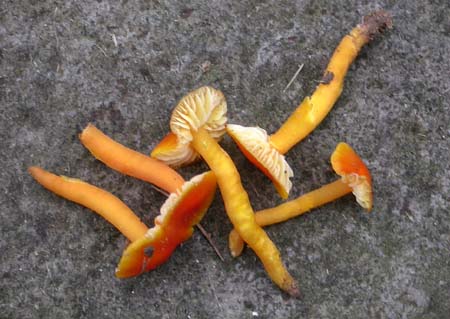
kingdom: Fungi
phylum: Basidiomycota
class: Agaricomycetes
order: Agaricales
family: Hygrophoraceae
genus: Hygrocybe
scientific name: Hygrocybe
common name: vokshat
